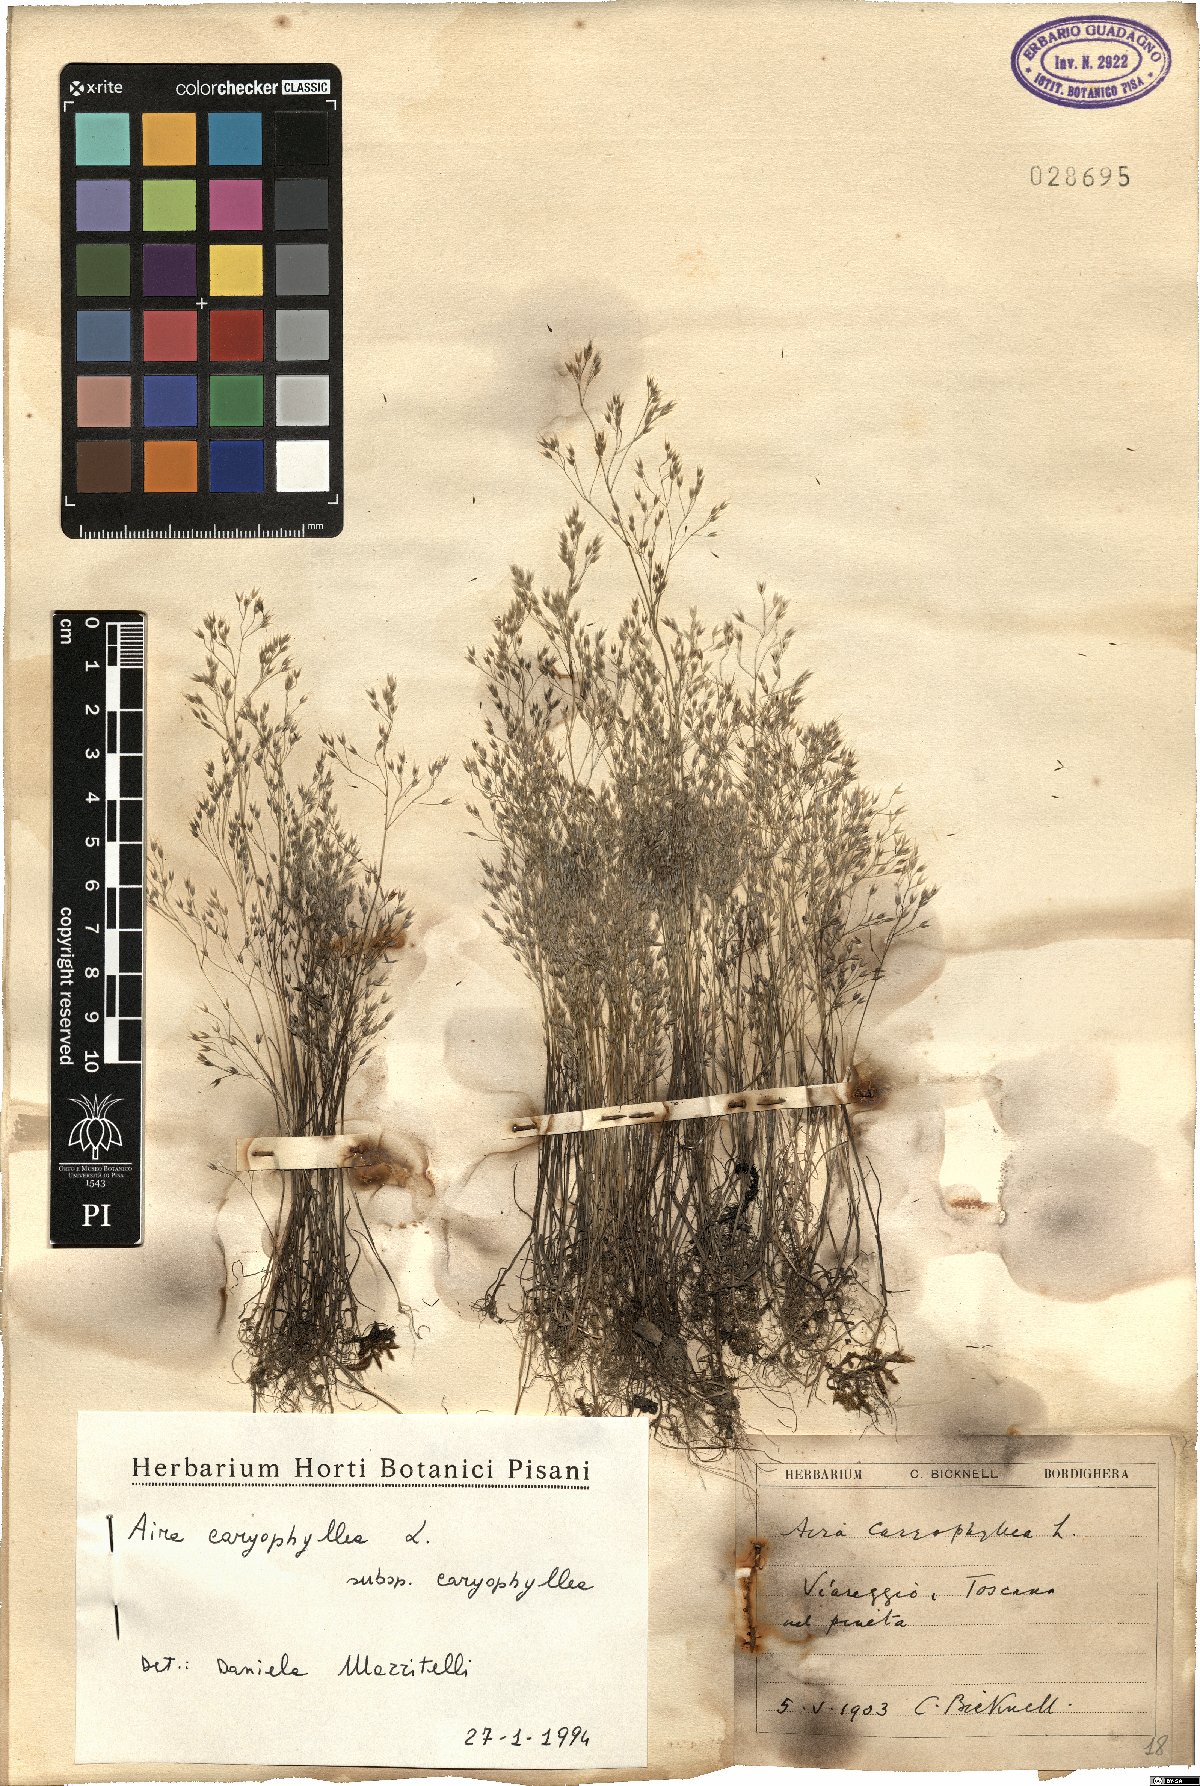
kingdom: Plantae
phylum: Tracheophyta
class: Liliopsida
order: Poales
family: Poaceae
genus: Aira
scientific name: Aira caryophyllea
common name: Silver hairgrass
